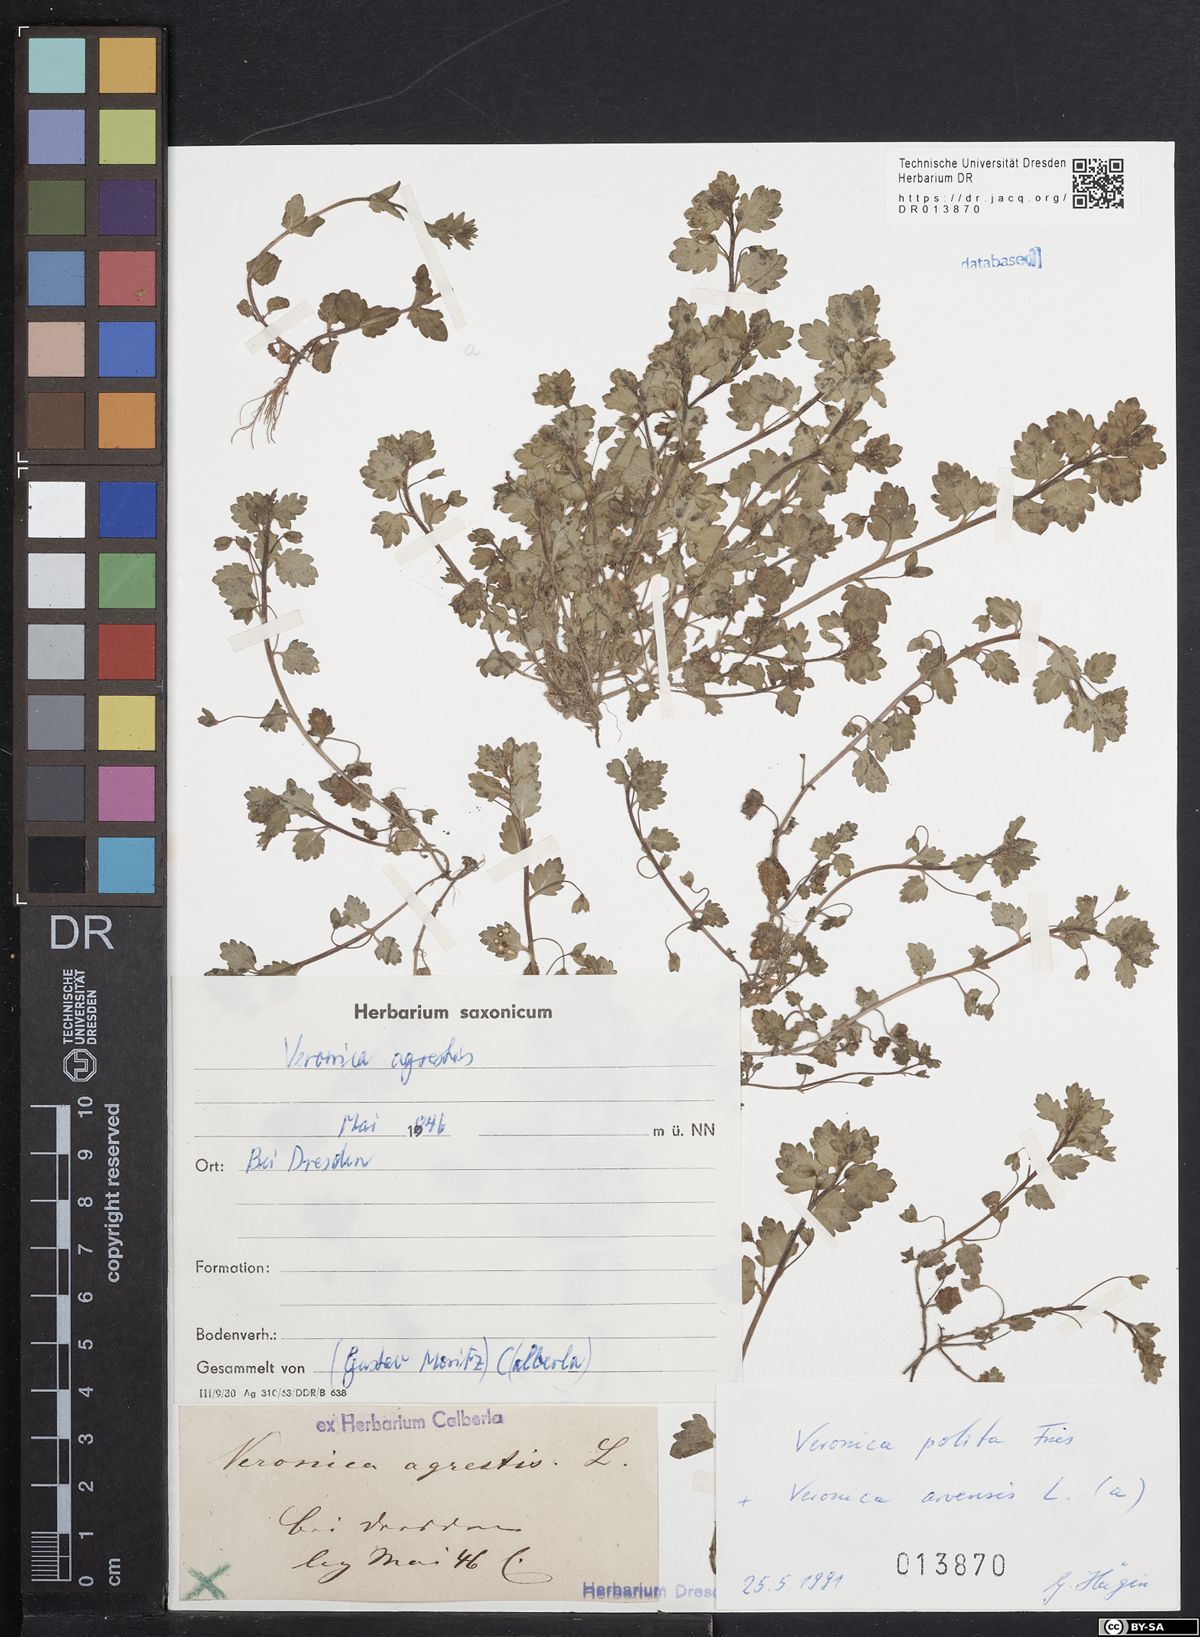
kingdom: Plantae
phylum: Tracheophyta
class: Magnoliopsida
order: Lamiales
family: Plantaginaceae
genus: Veronica
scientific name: Veronica polita
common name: Grey field-speedwell
